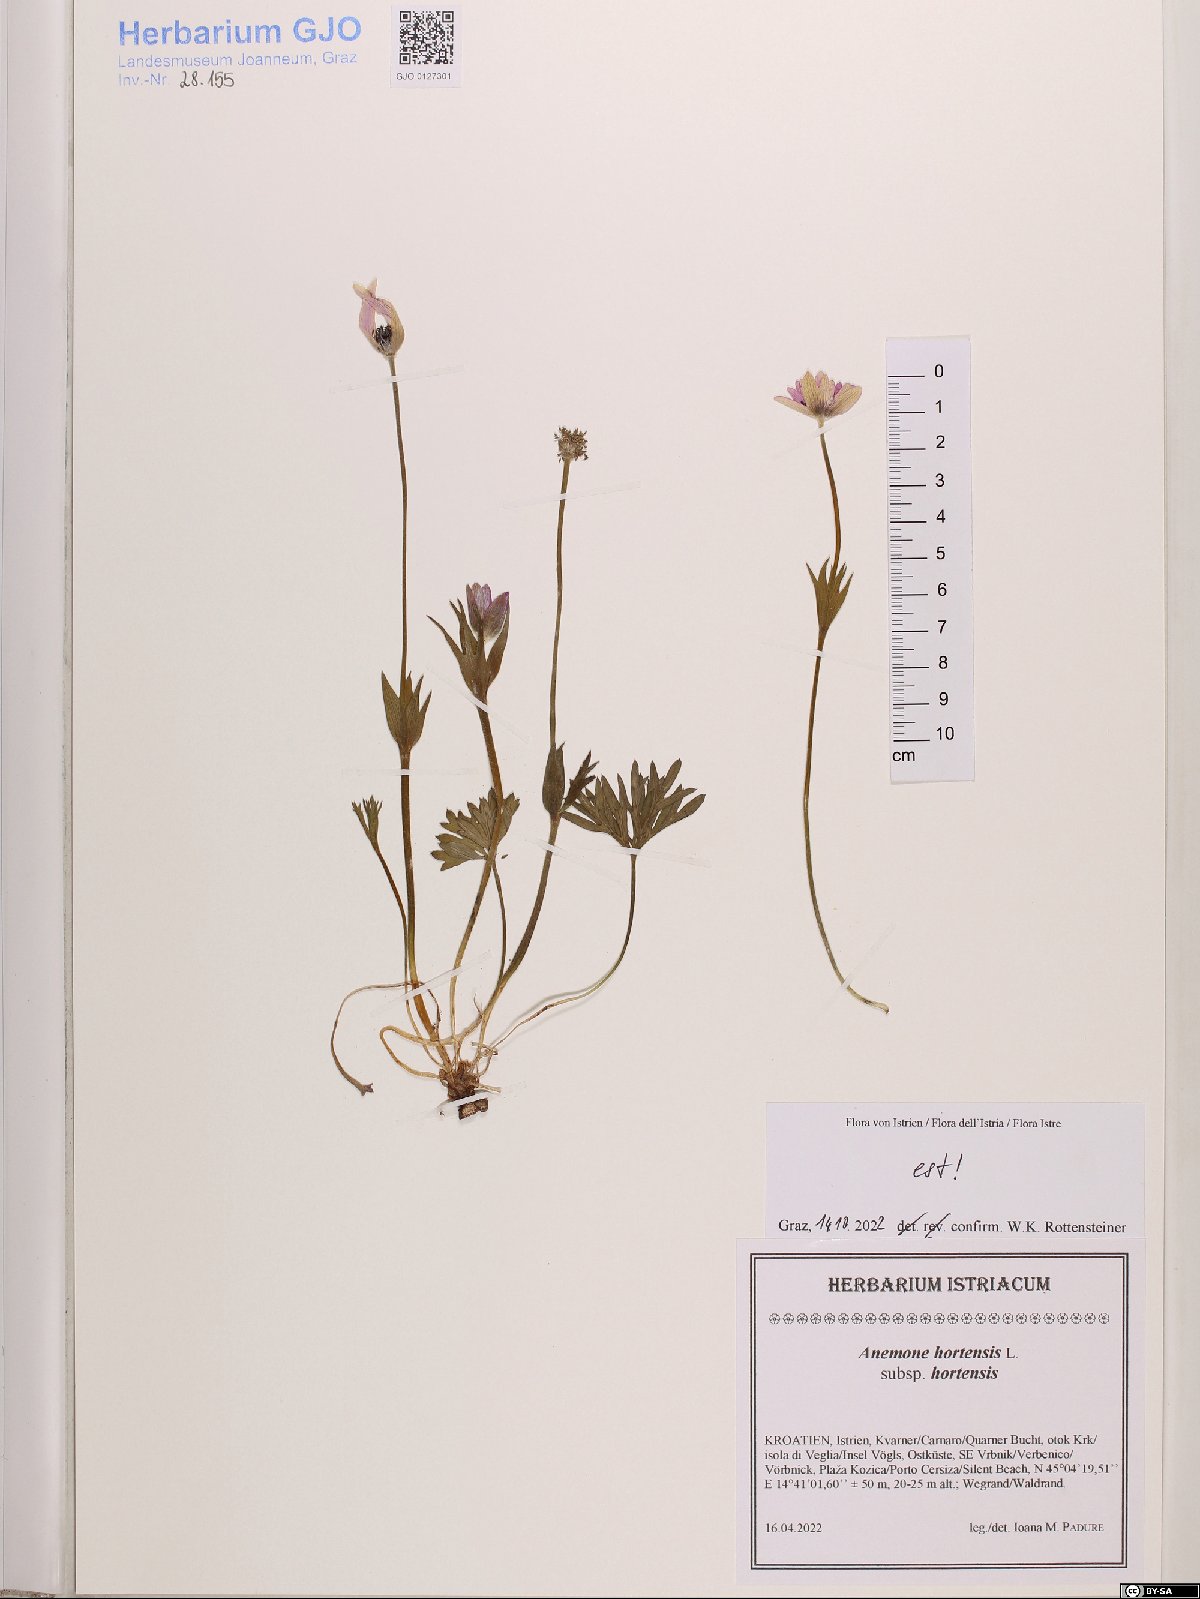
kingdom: Plantae
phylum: Tracheophyta
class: Magnoliopsida
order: Ranunculales
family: Ranunculaceae
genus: Anemone
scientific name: Anemone hortensis
